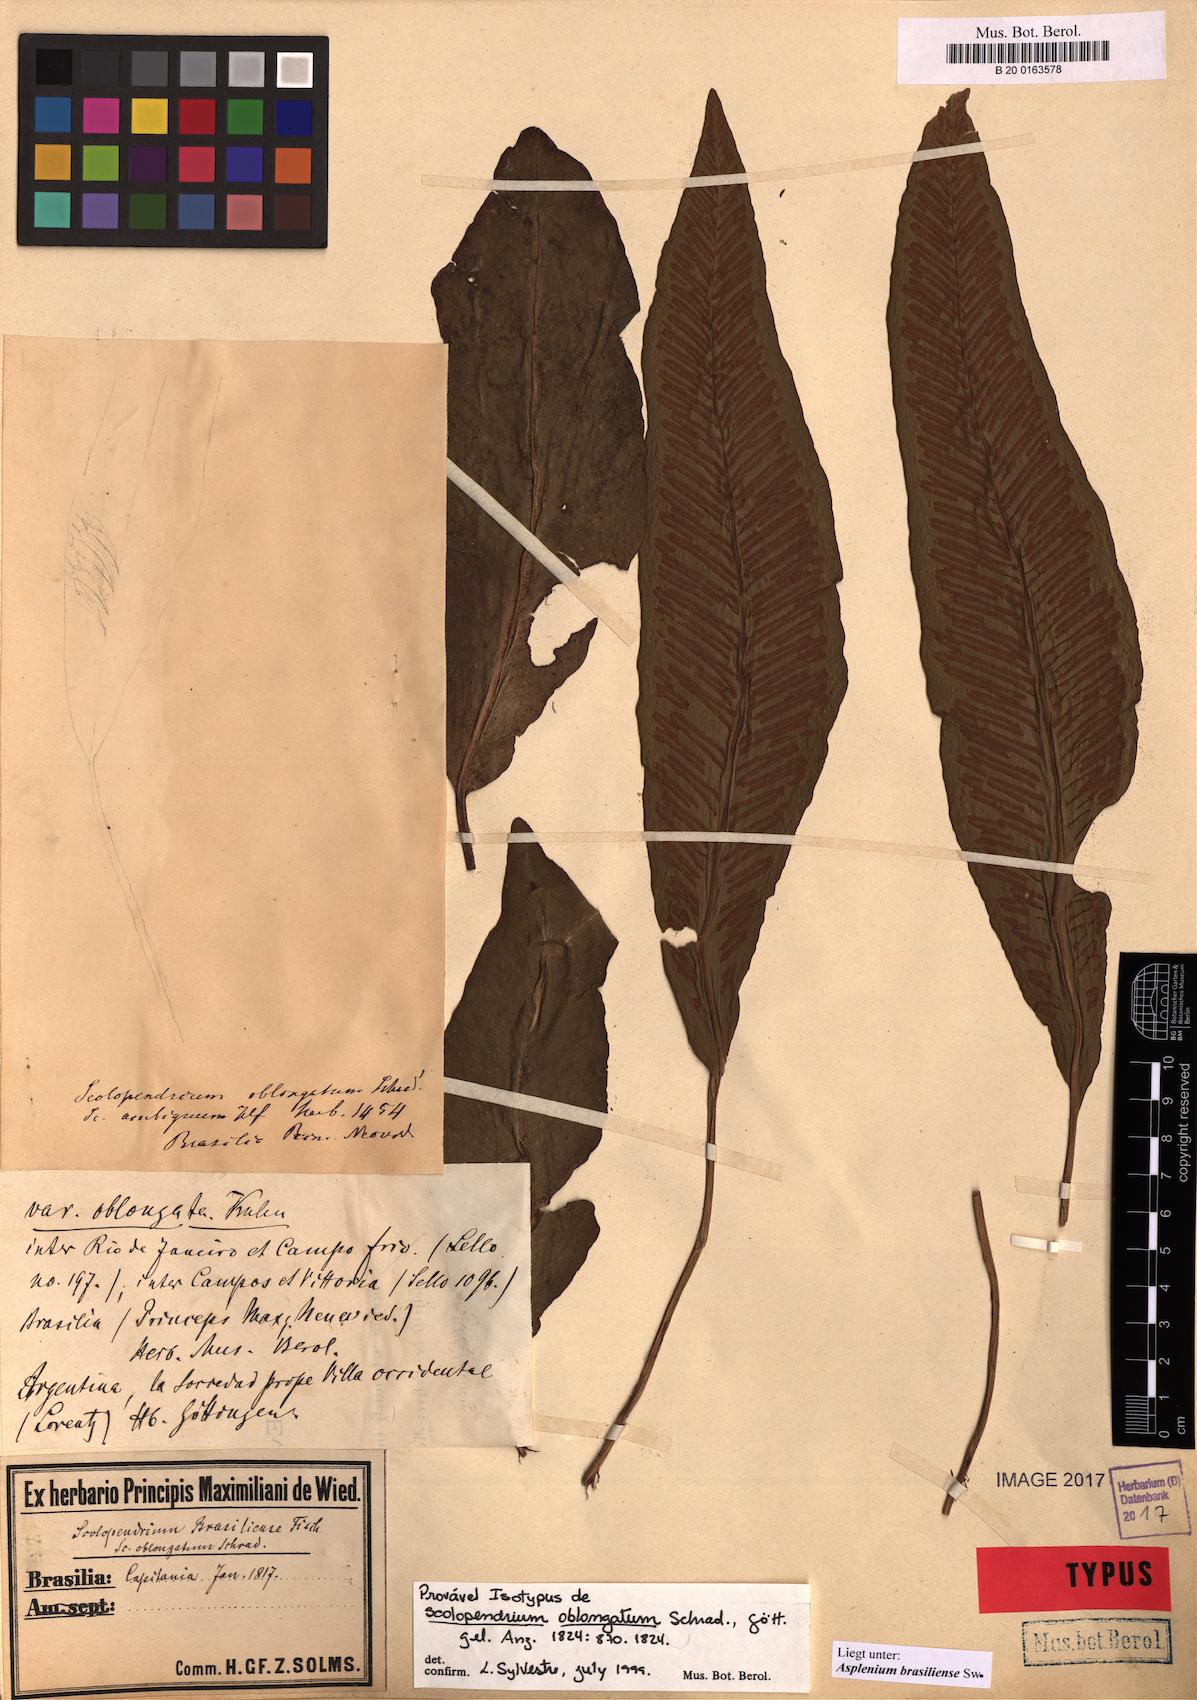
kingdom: Plantae
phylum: Tracheophyta
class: Polypodiopsida
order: Polypodiales
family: Aspleniaceae
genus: Asplenium
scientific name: Asplenium brasiliense
